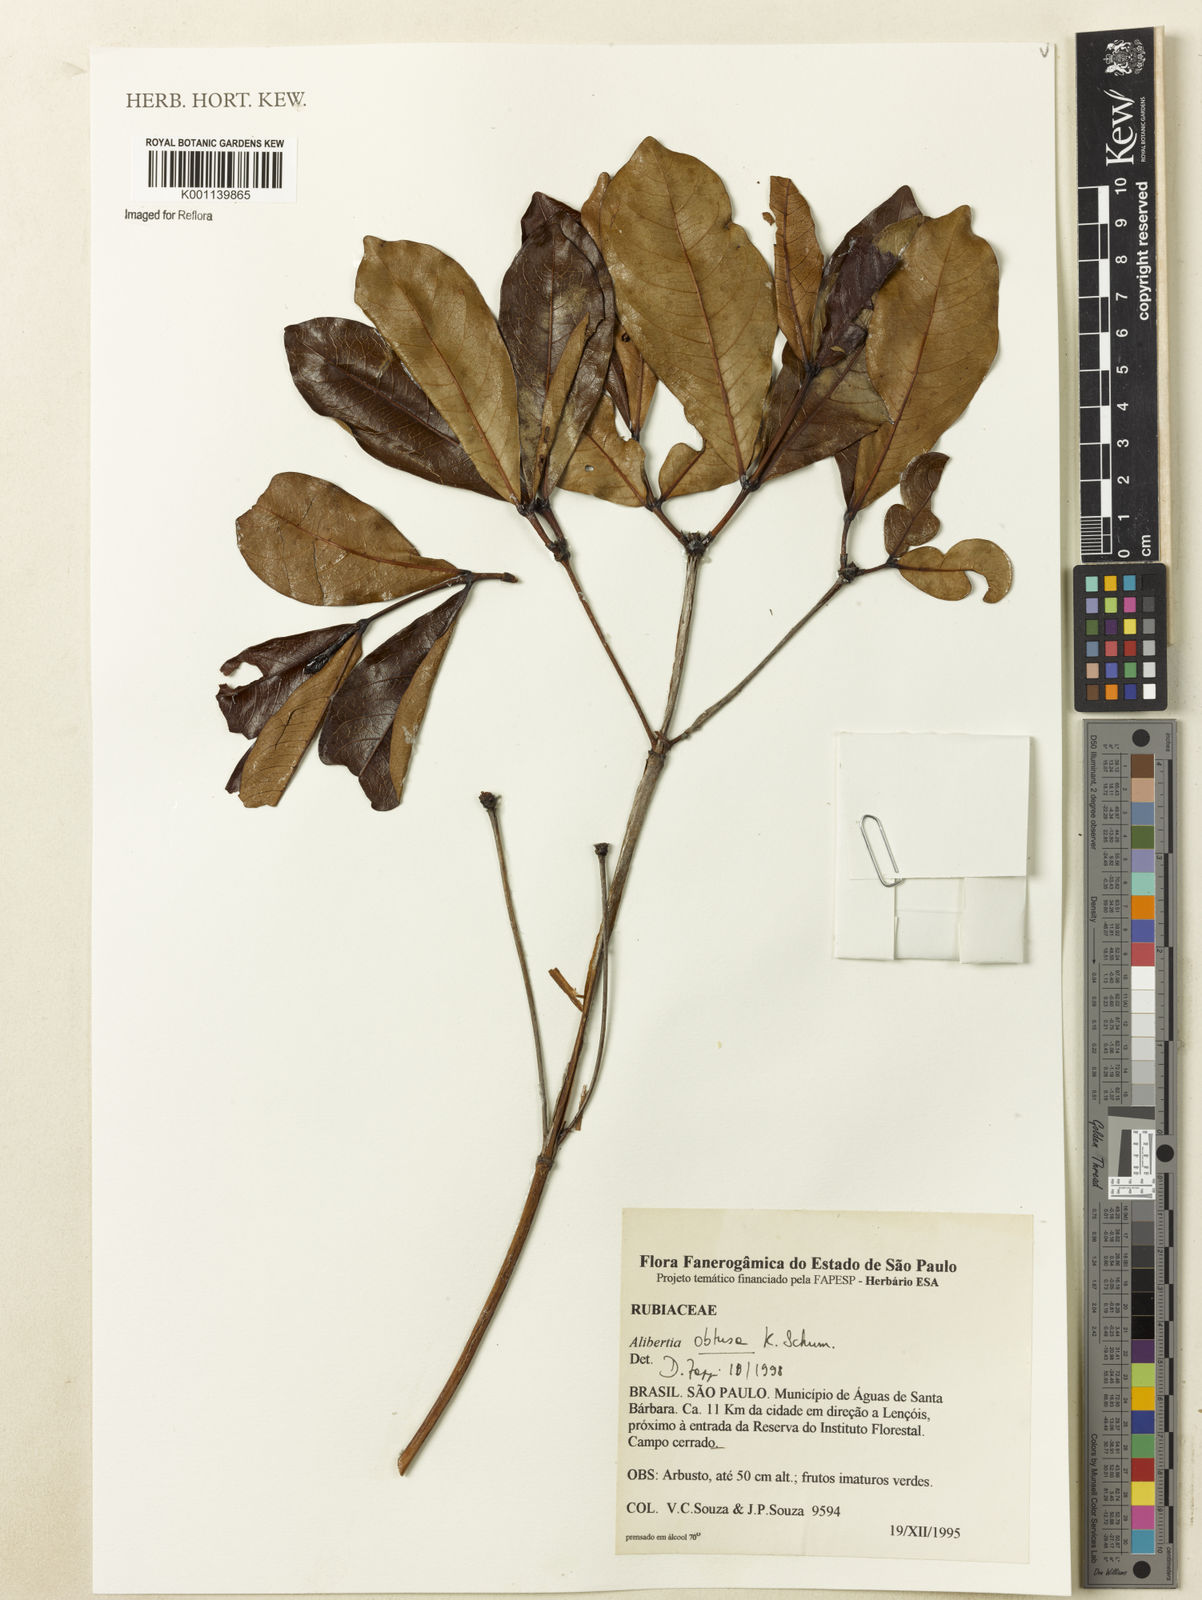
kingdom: Plantae
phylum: Tracheophyta
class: Magnoliopsida
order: Gentianales
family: Rubiaceae
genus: Cordiera
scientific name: Cordiera obtusa
